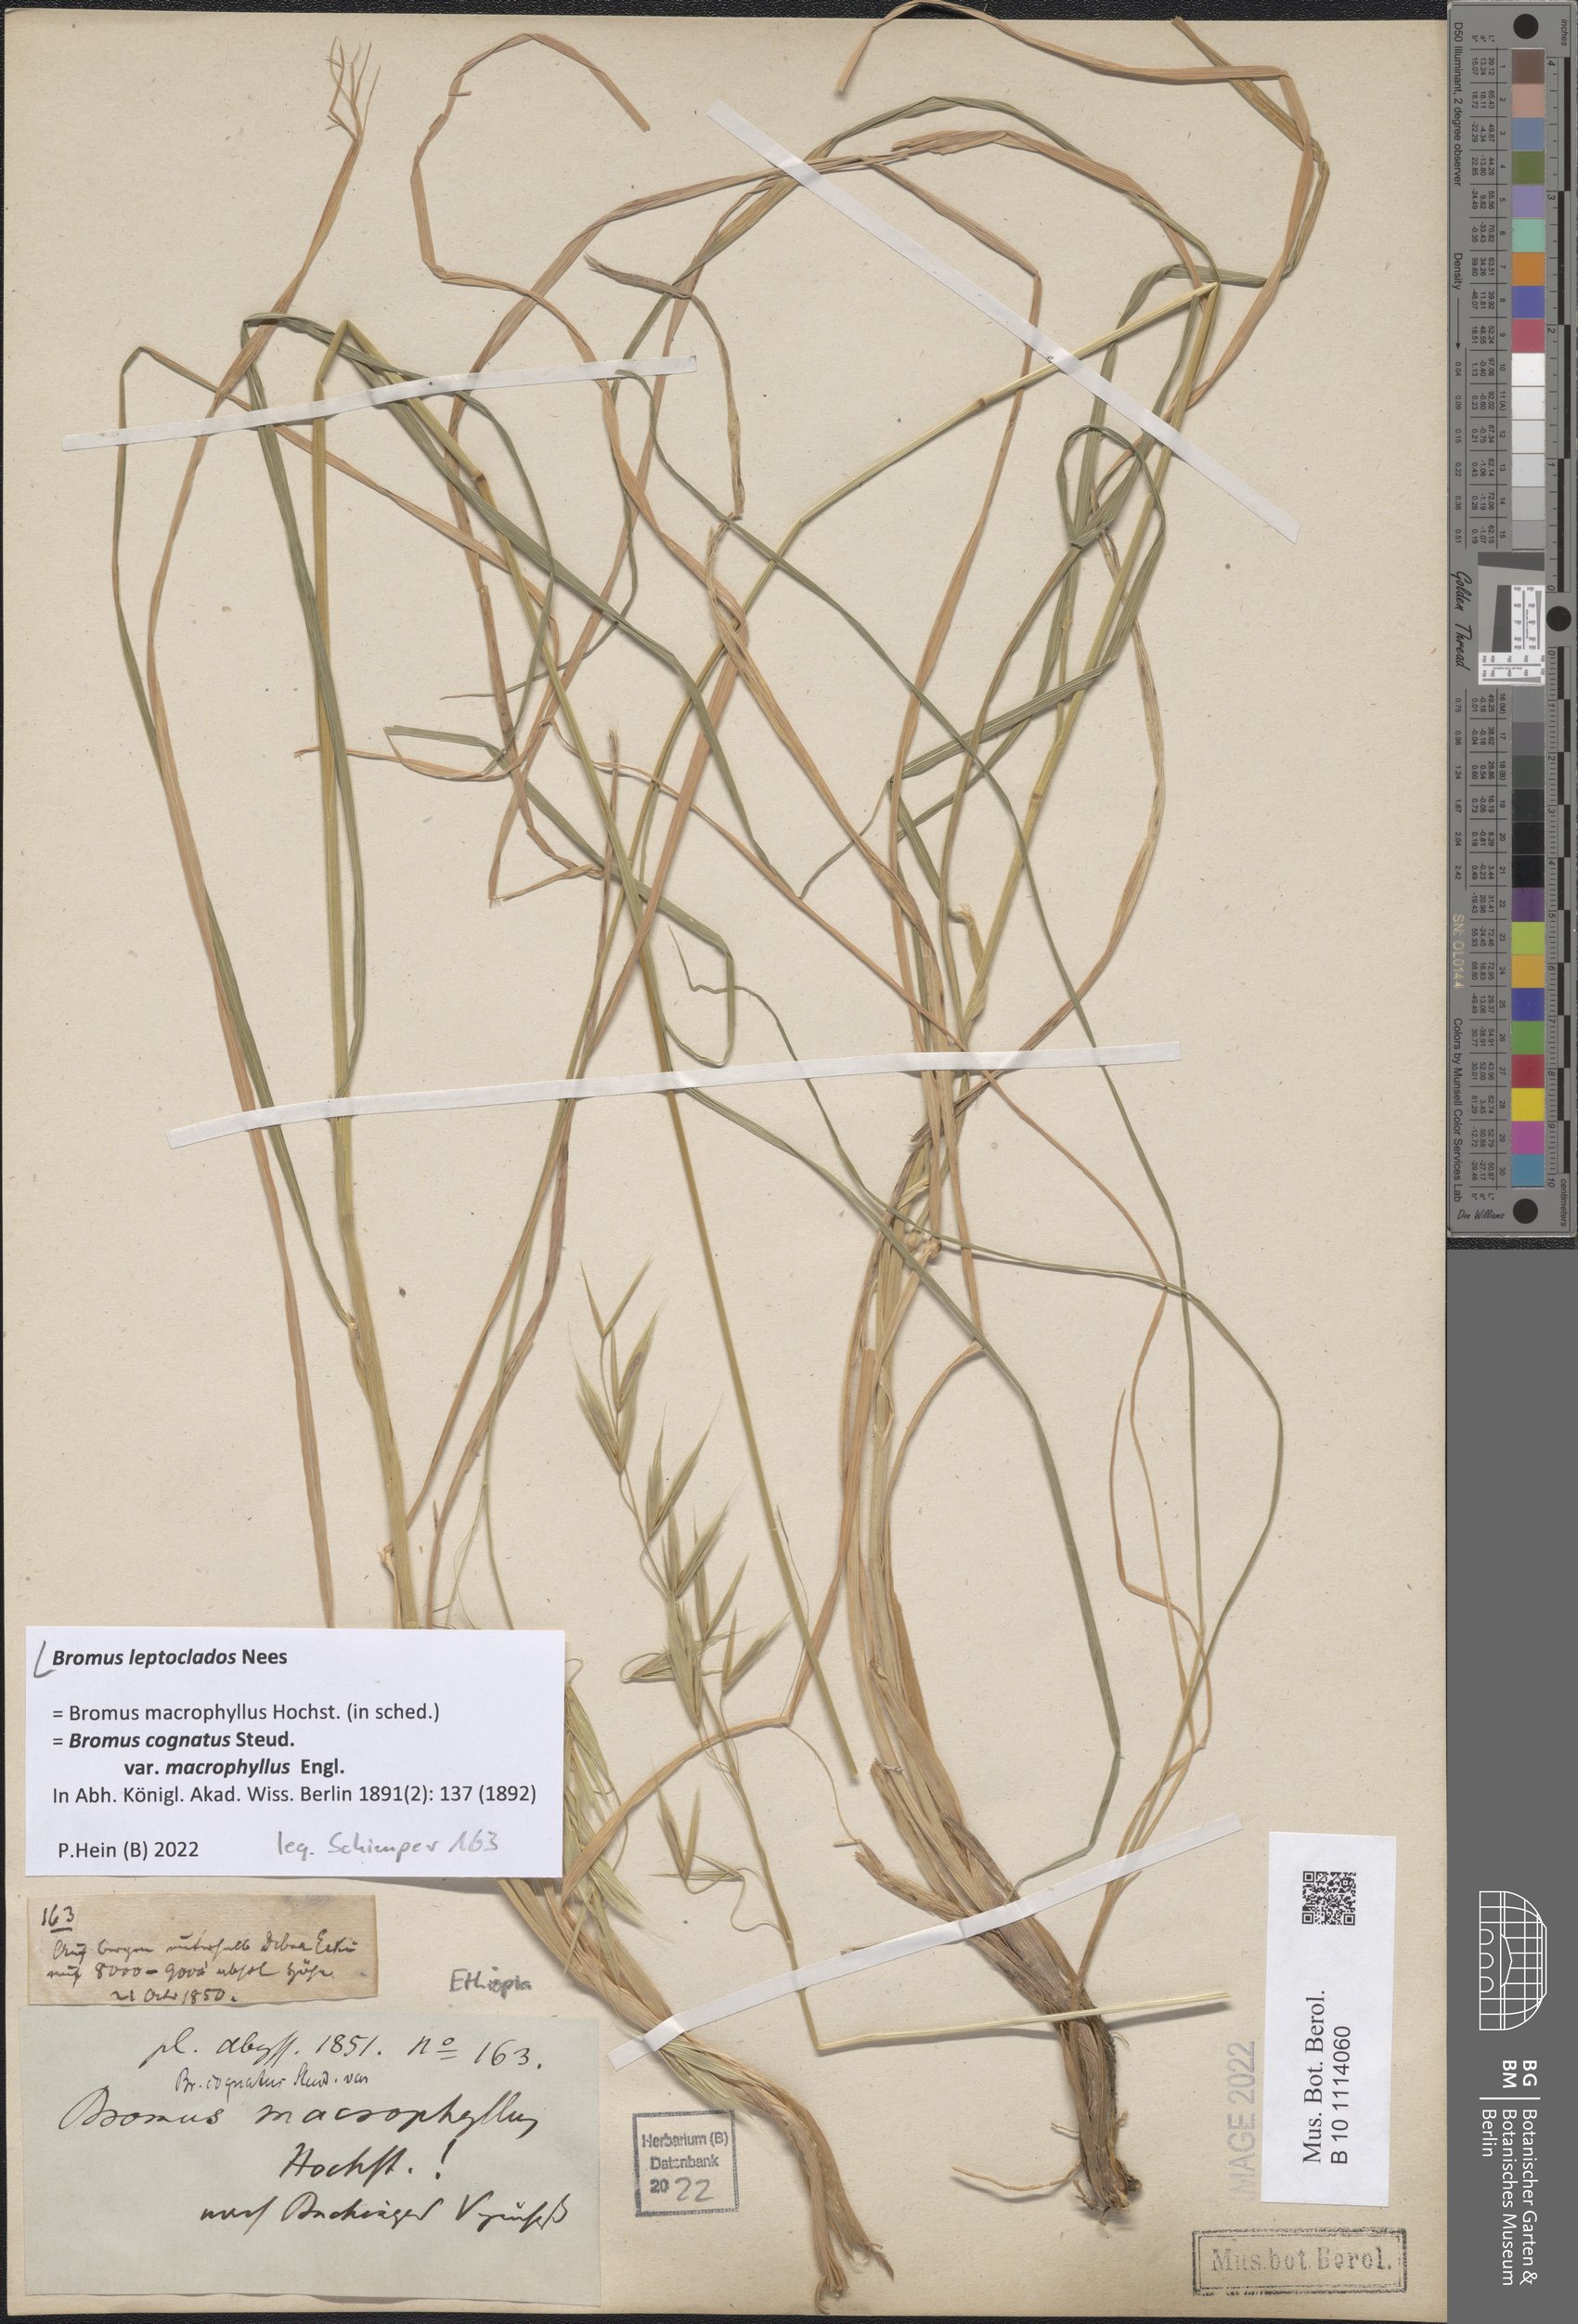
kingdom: Plantae
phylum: Tracheophyta
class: Liliopsida
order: Poales
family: Poaceae
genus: Bromus
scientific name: Bromus leptoclados
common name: Mountain bromegrass
